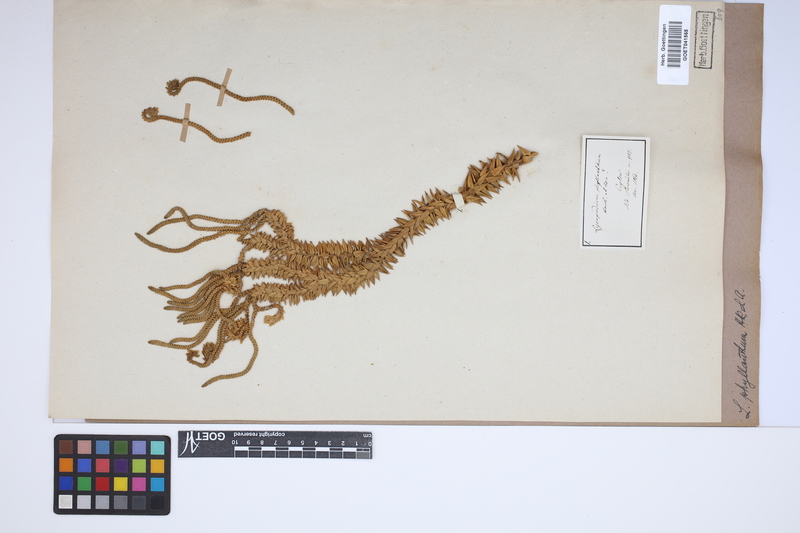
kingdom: Plantae
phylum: Tracheophyta
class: Lycopodiopsida
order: Lycopodiales
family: Lycopodiaceae
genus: Phlegmariurus
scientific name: Phlegmariurus phyllanthus
